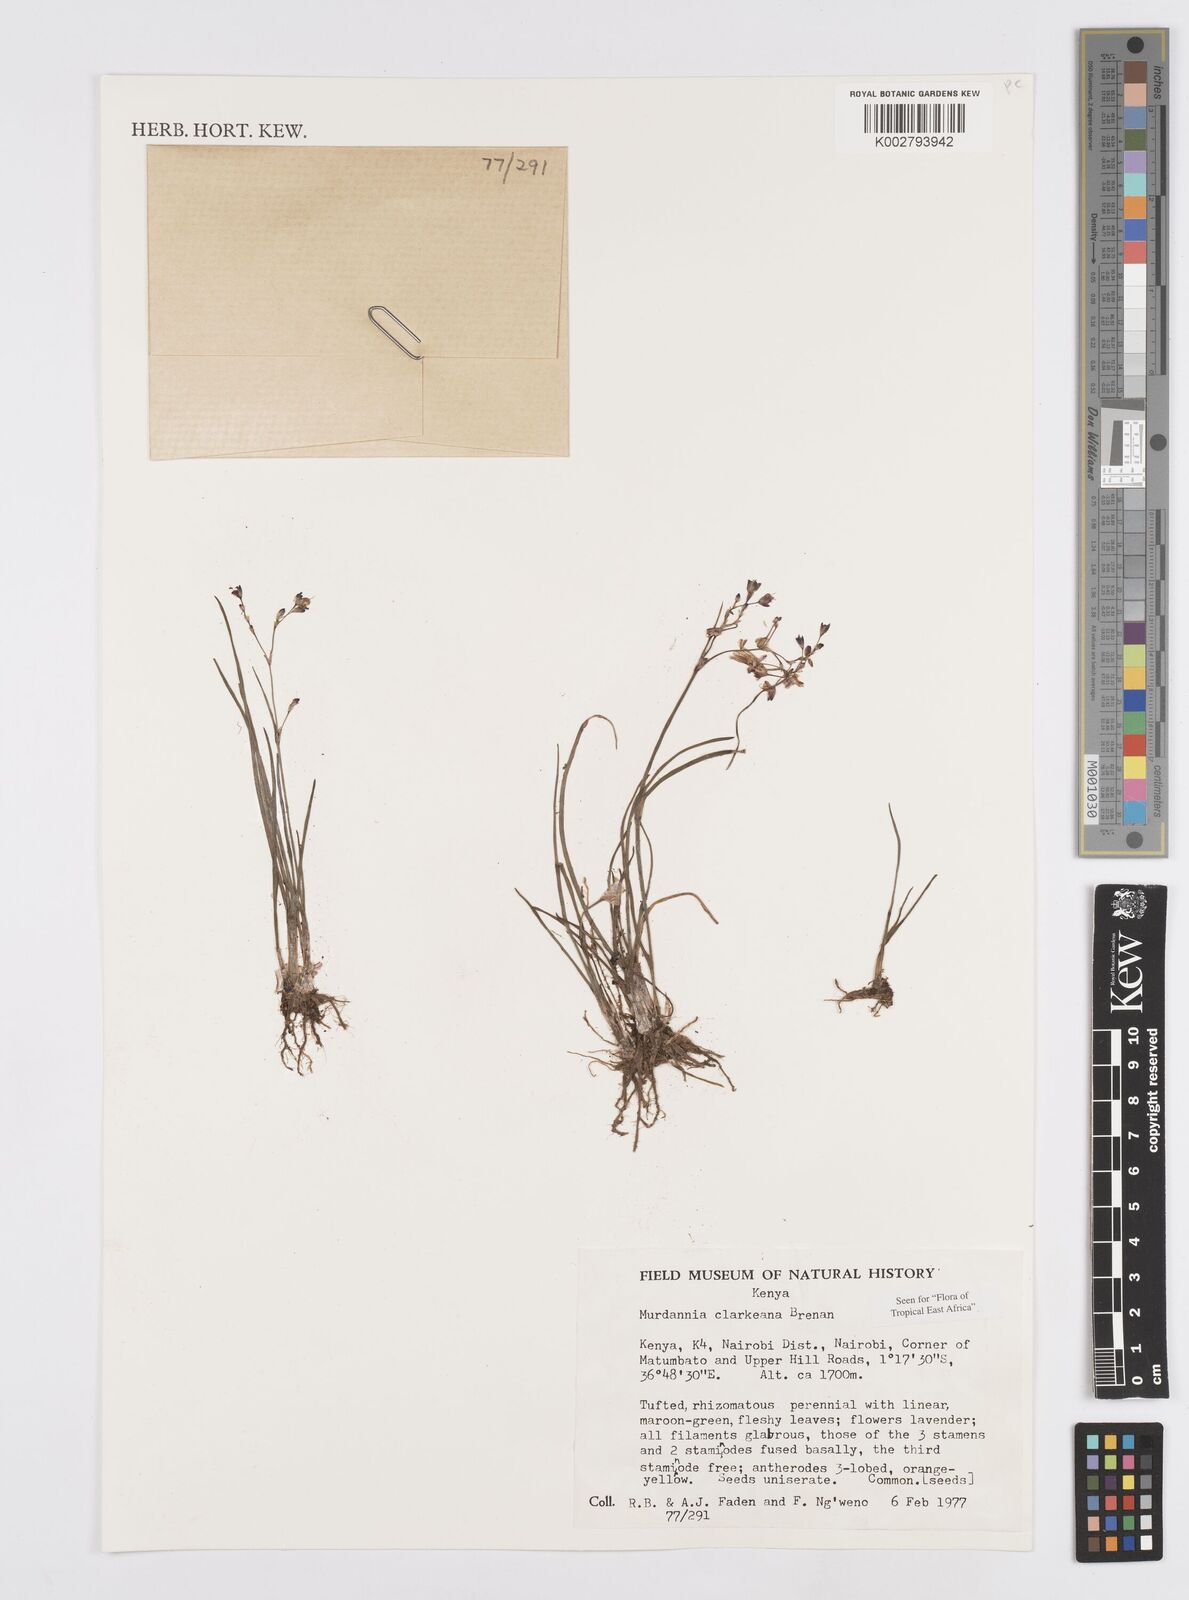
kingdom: Plantae
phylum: Tracheophyta
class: Liliopsida
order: Commelinales
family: Commelinaceae
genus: Murdannia
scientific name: Murdannia clarkeana
